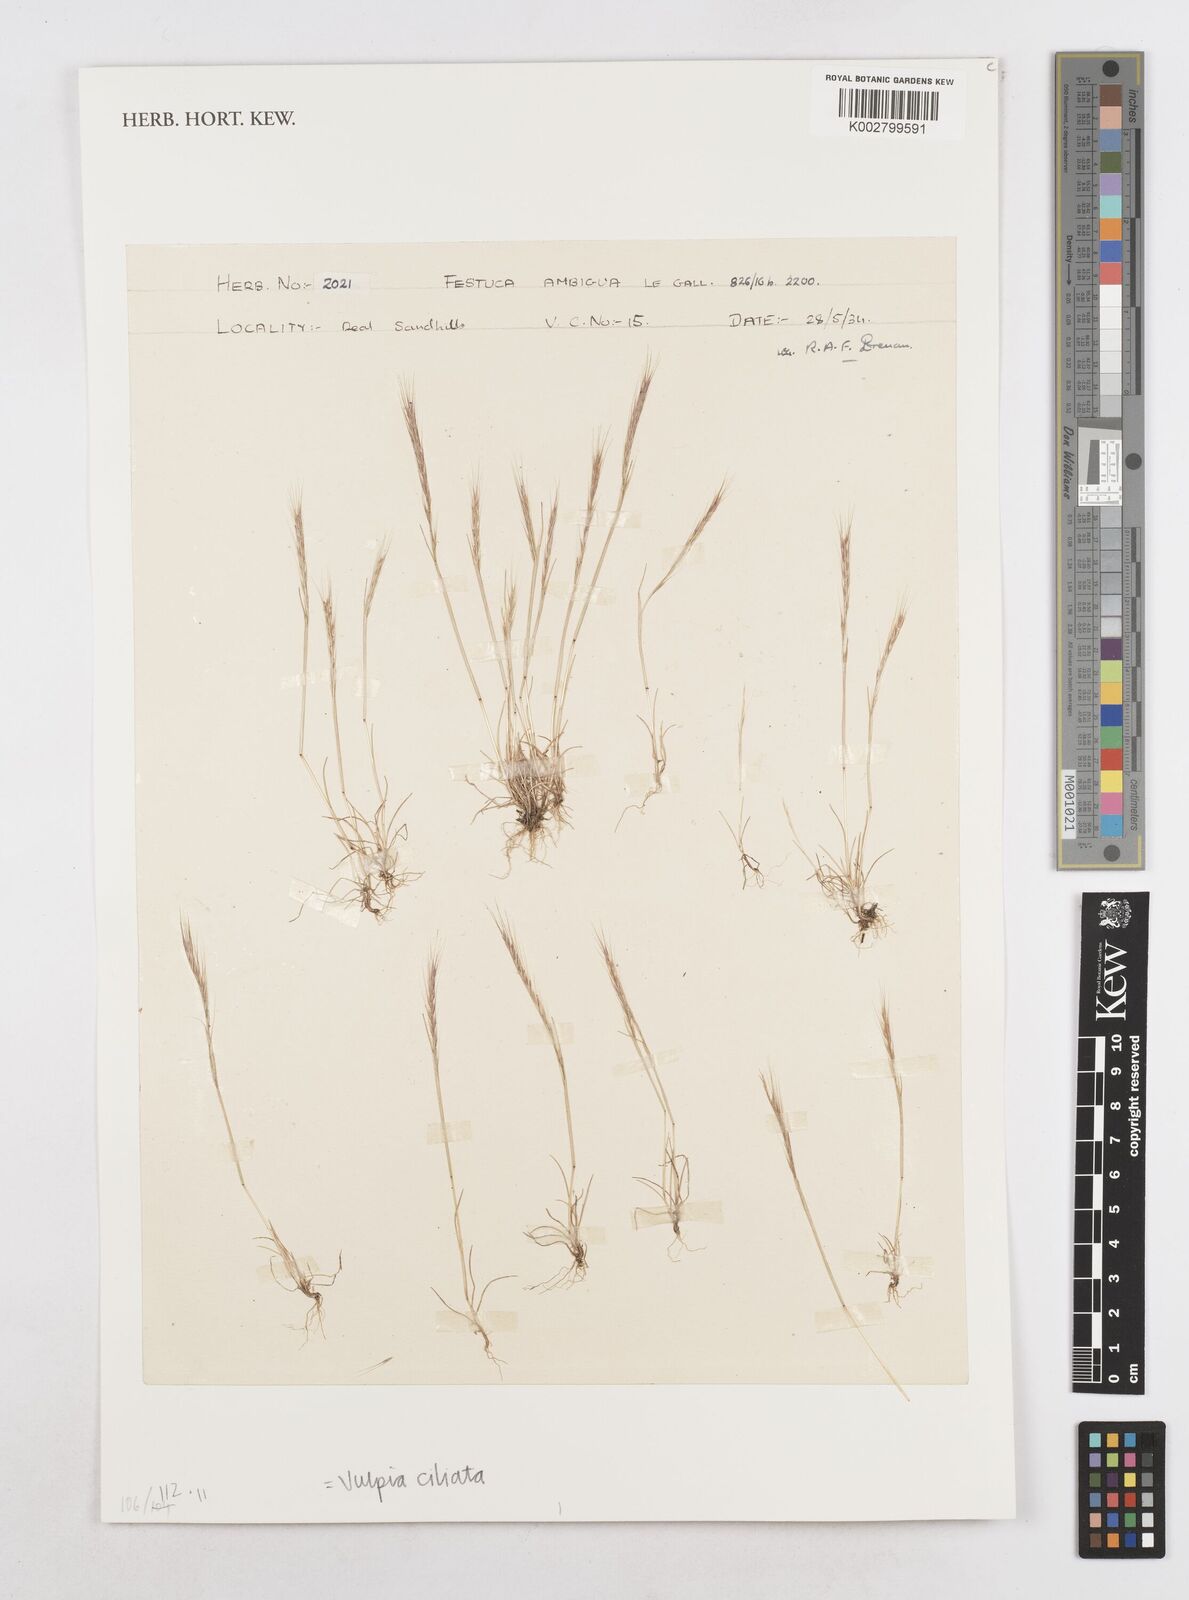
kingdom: Plantae
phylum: Tracheophyta
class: Liliopsida
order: Poales
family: Poaceae
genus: Festuca
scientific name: Festuca ambigua
